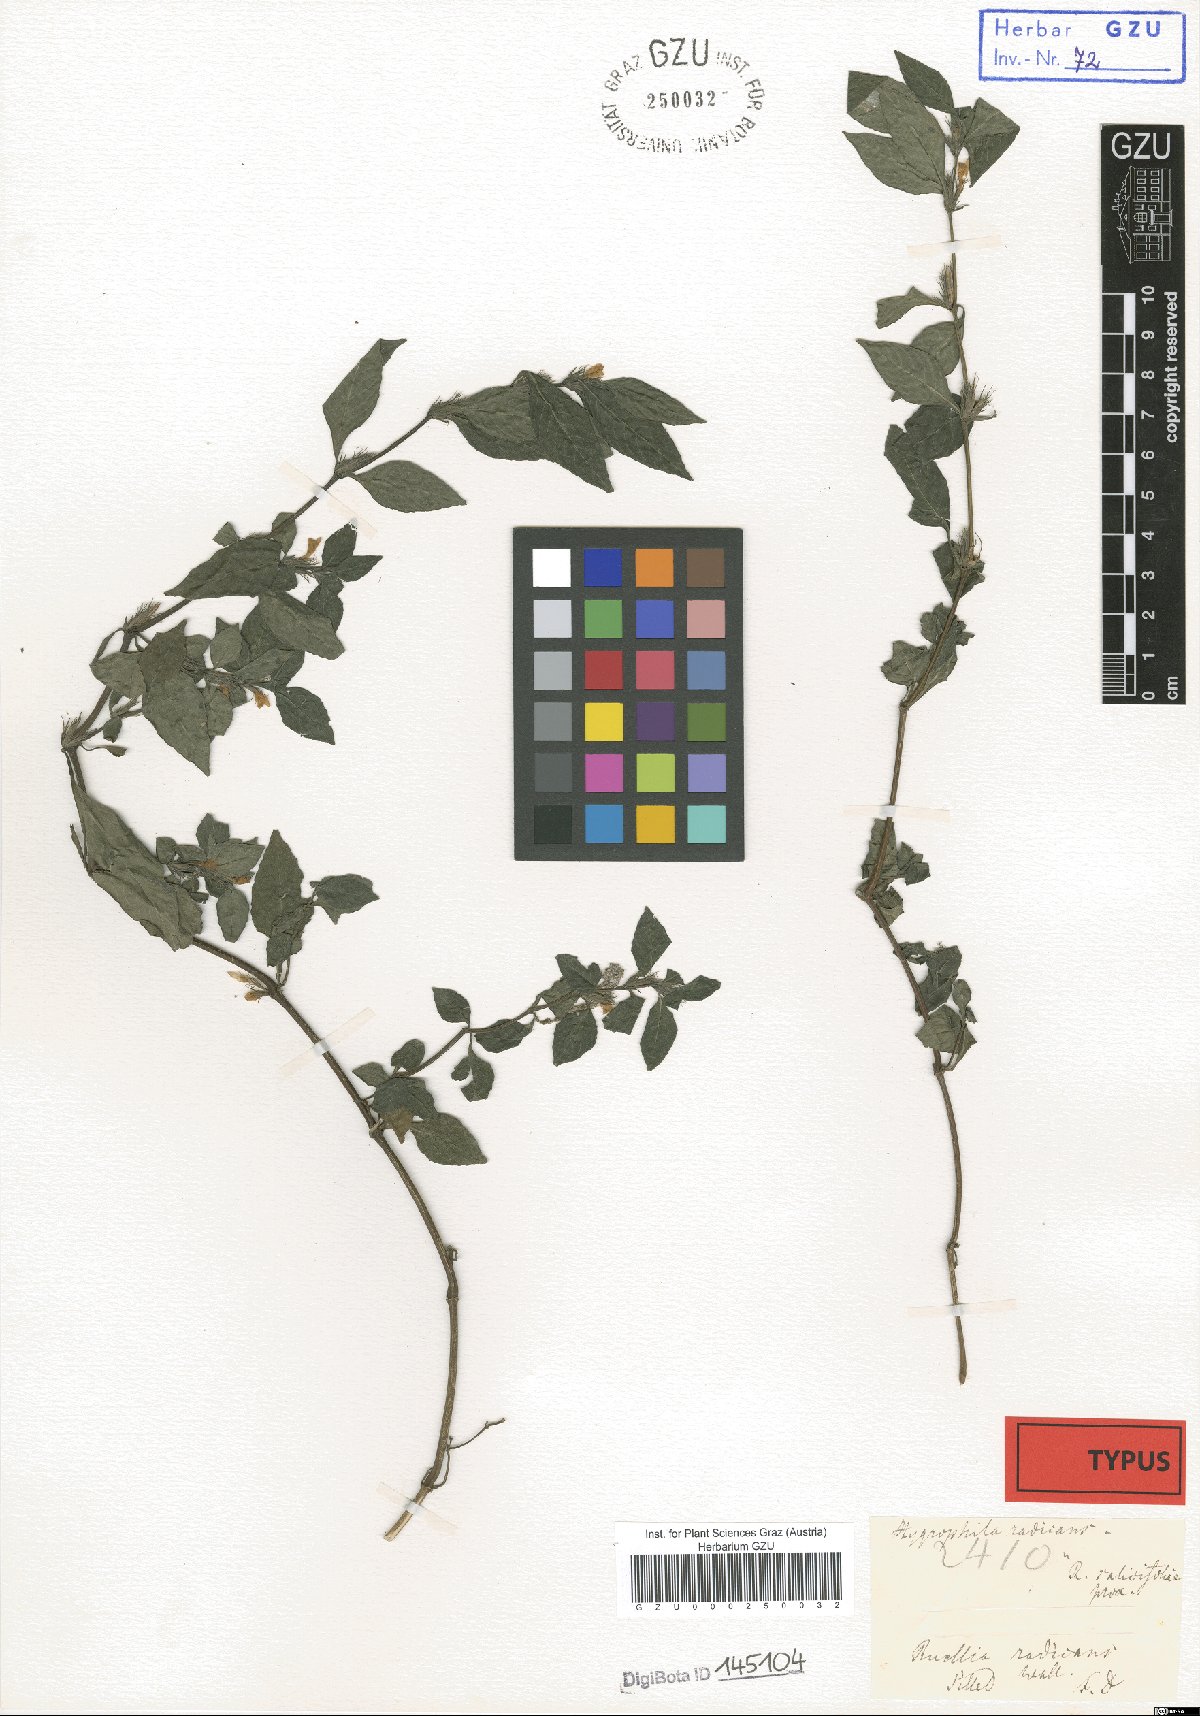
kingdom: Plantae
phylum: Tracheophyta
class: Magnoliopsida
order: Lamiales
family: Acanthaceae
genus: Hygrophila
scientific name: Hygrophila ringens
